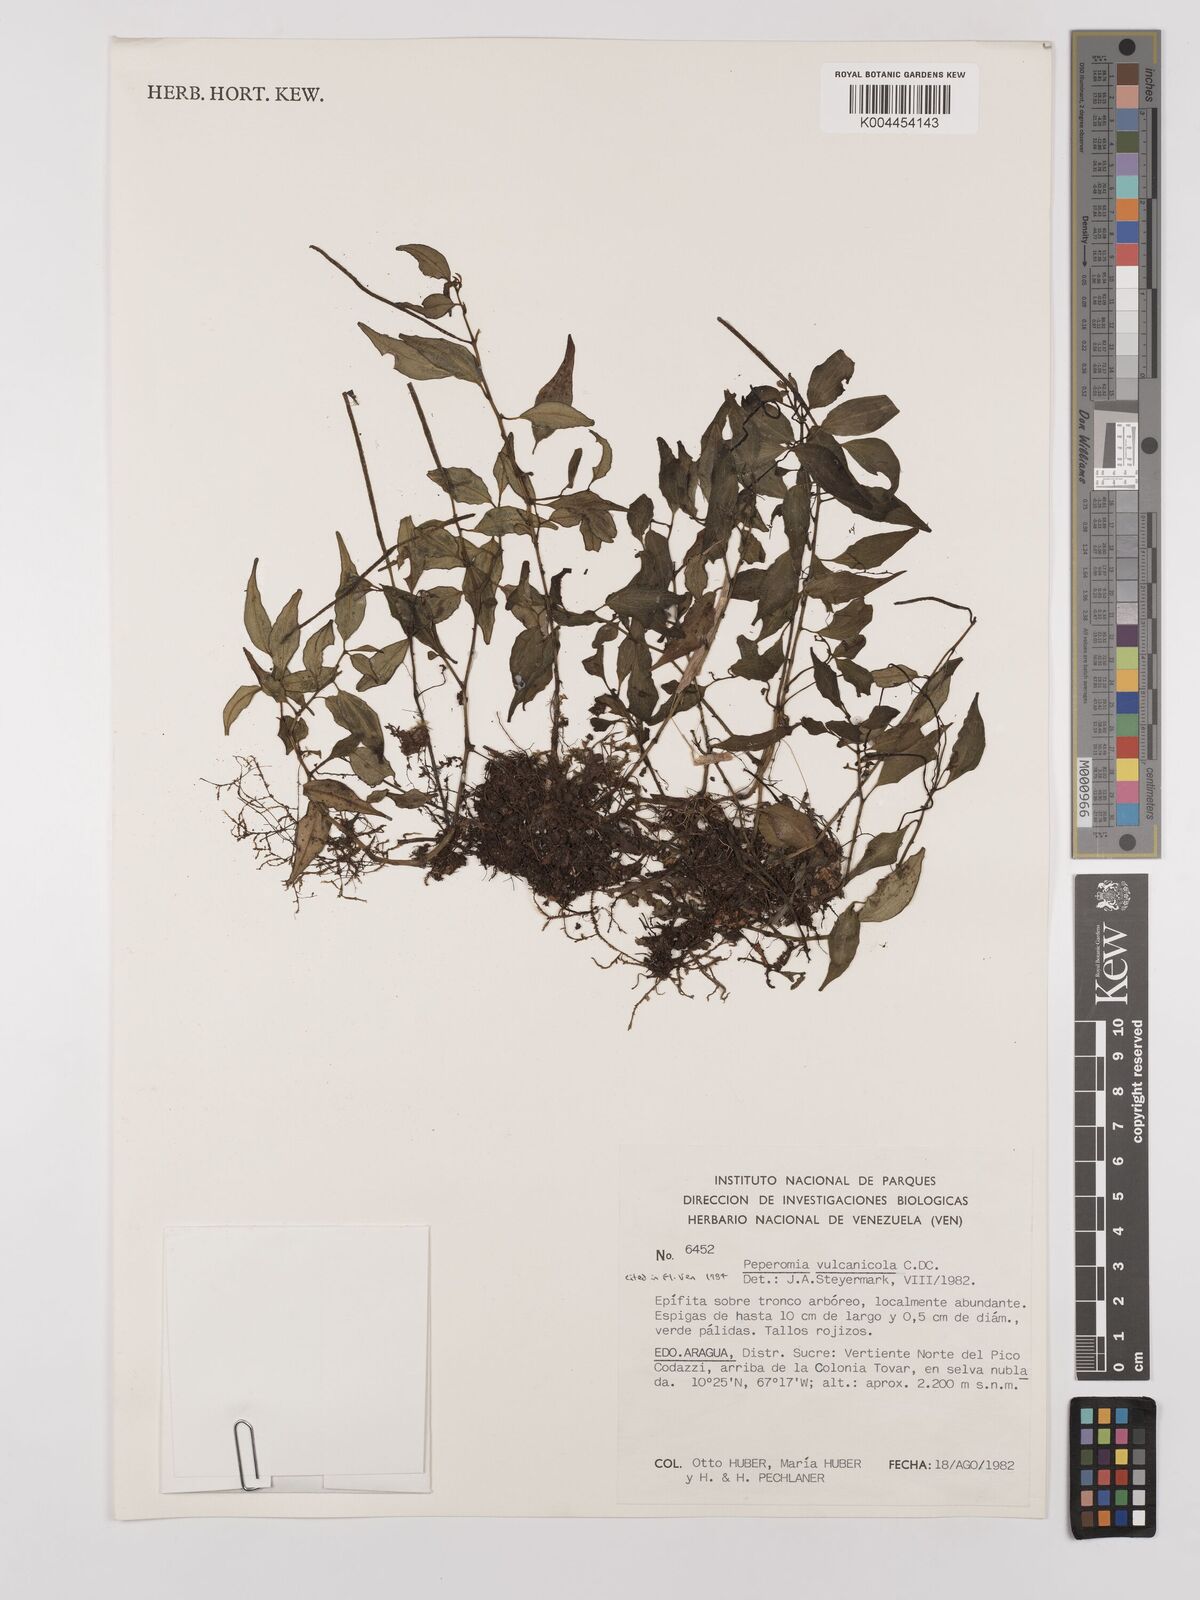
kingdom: Plantae
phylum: Tracheophyta
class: Magnoliopsida
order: Piperales
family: Piperaceae
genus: Peperomia
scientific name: Peperomia heterophylla
